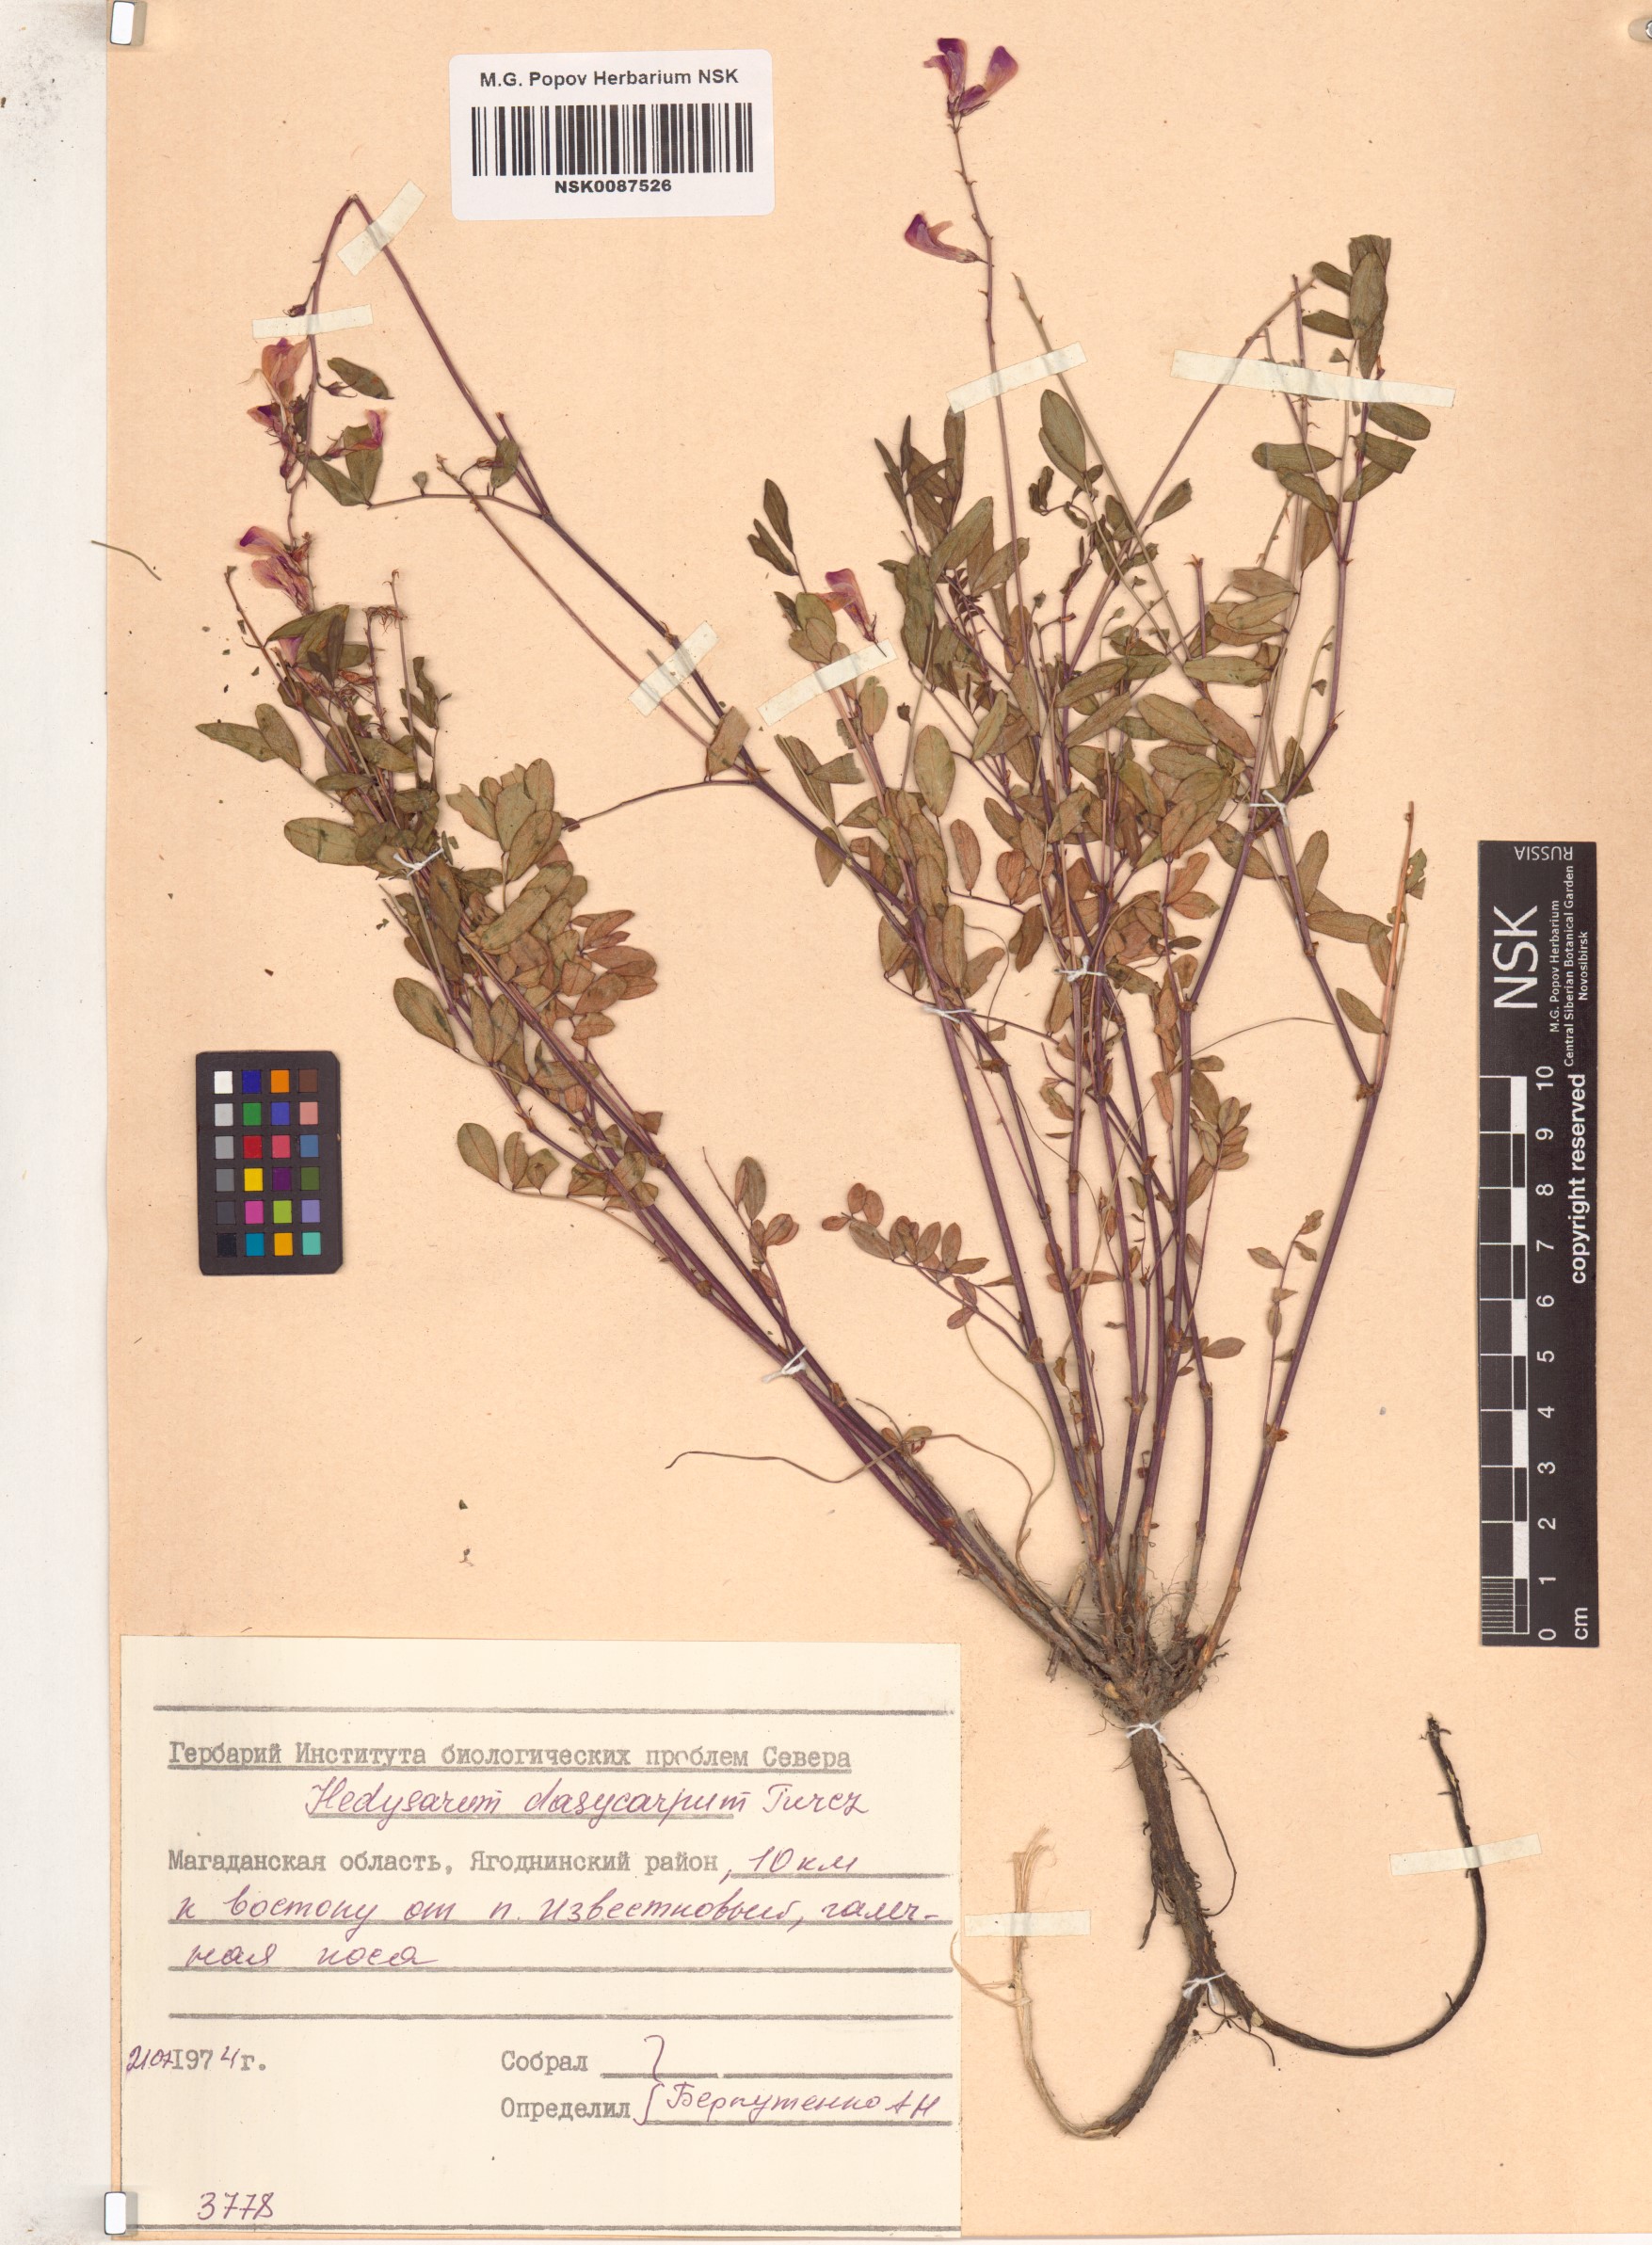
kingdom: Plantae
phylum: Tracheophyta
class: Magnoliopsida
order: Fabales
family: Fabaceae
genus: Hedysarum
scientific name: Hedysarum dasycarpum
